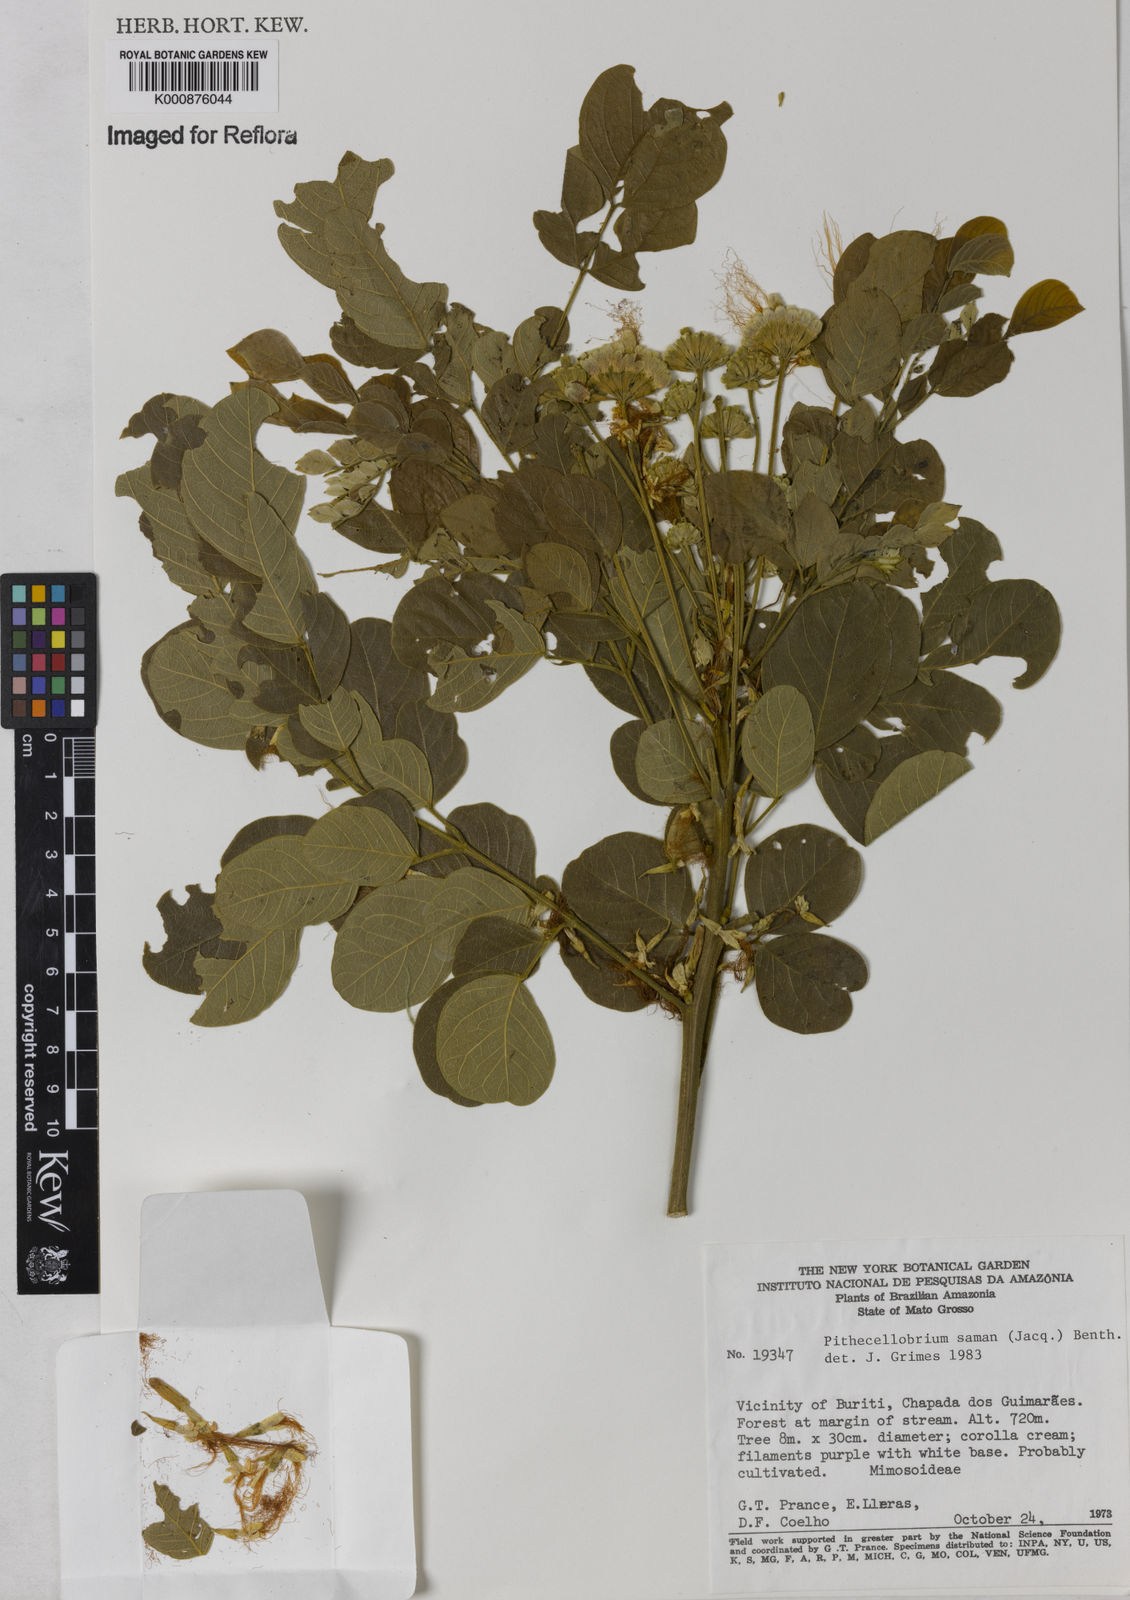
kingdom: Plantae
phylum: Tracheophyta
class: Magnoliopsida
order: Fabales
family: Fabaceae
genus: Samanea
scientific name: Samanea saman
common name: Raintree
